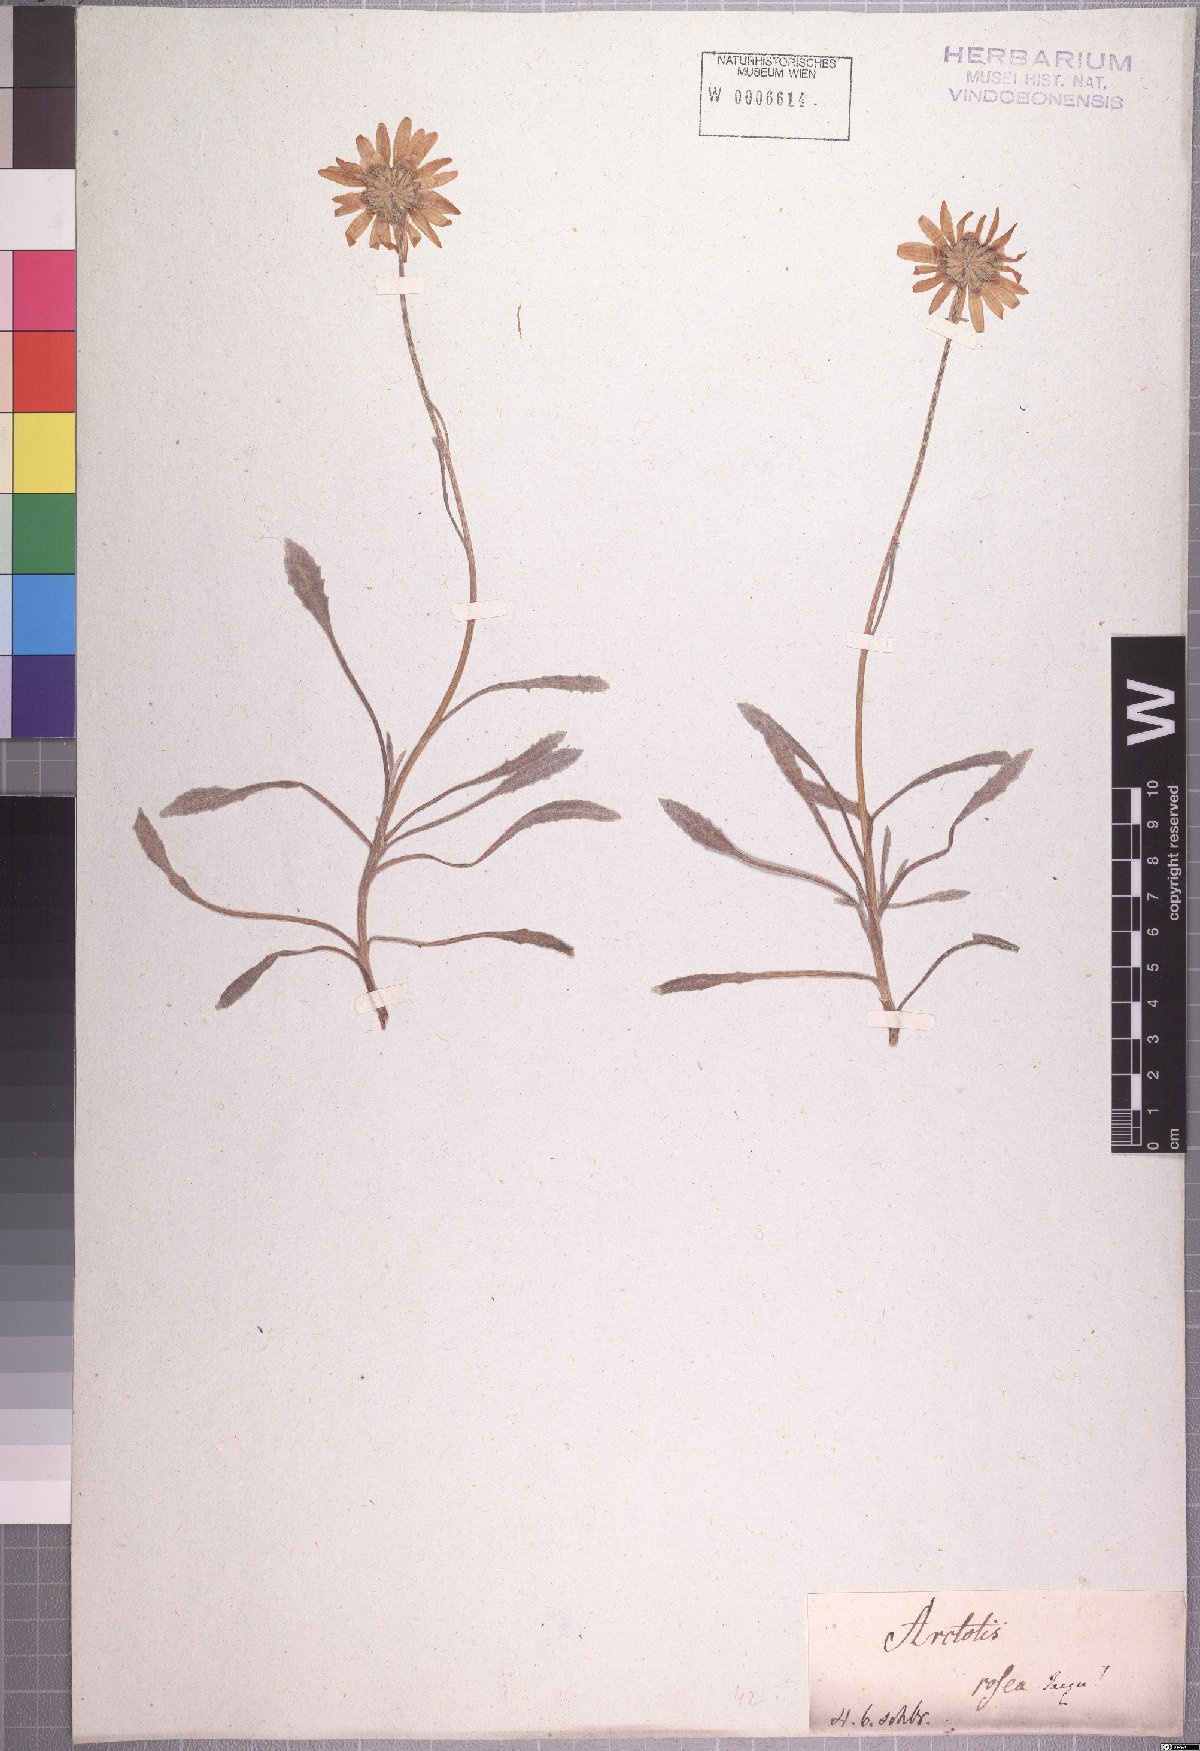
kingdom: Plantae
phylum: Tracheophyta
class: Magnoliopsida
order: Asterales
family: Asteraceae
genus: Arctotis
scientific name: Arctotis rosea
